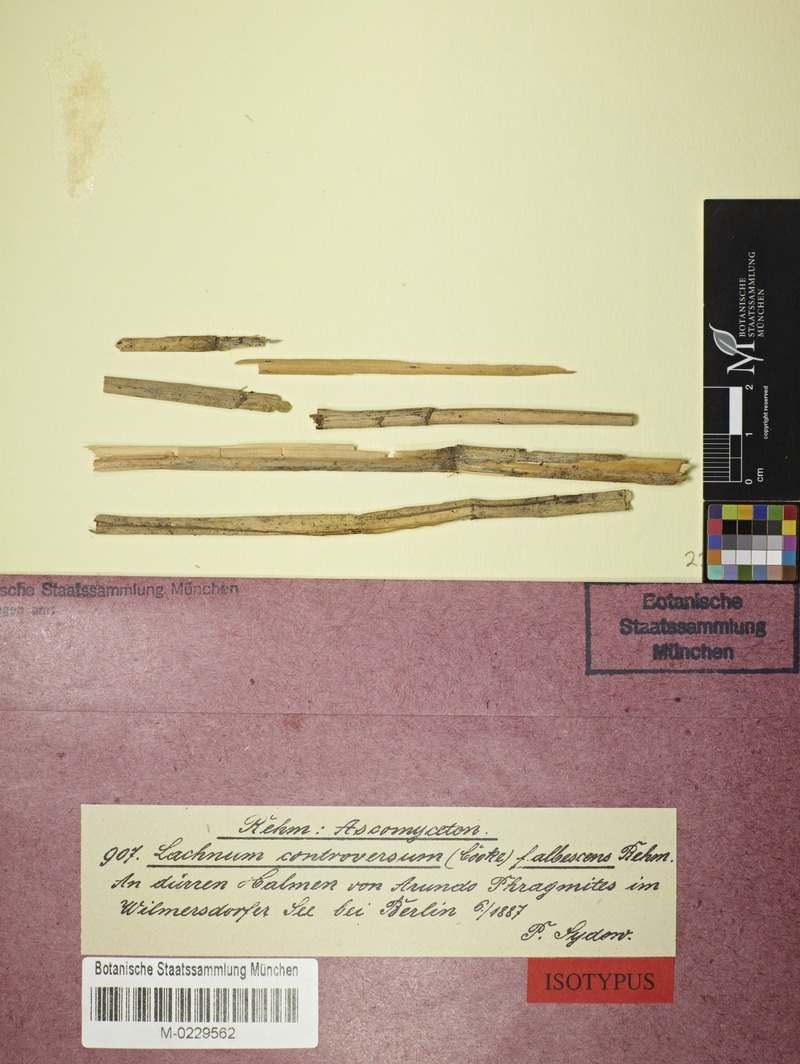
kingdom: Fungi
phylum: Ascomycota
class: Leotiomycetes
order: Helotiales
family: Lachnaceae
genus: Lachnum
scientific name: Lachnum controversum
